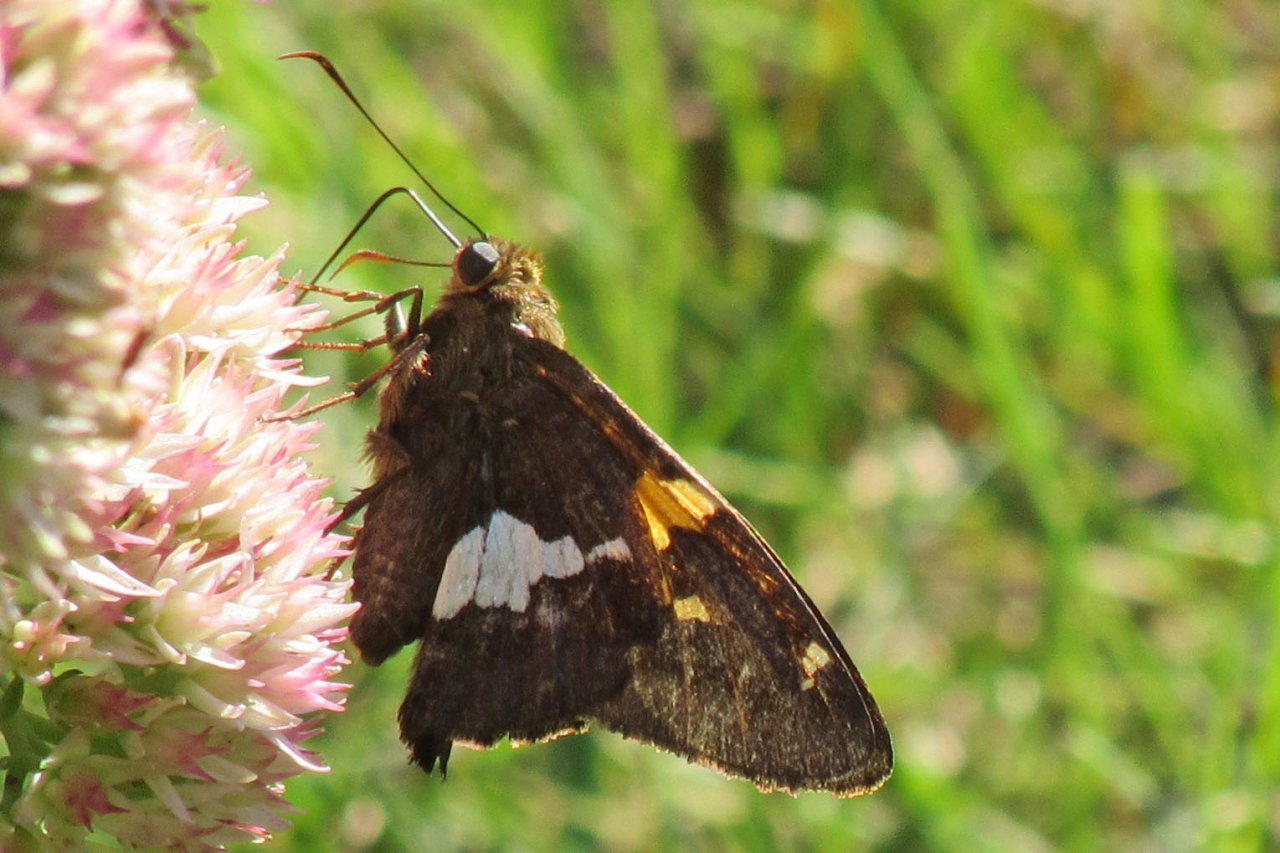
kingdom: Animalia
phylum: Arthropoda
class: Insecta
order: Lepidoptera
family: Hesperiidae
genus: Epargyreus
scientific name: Epargyreus clarus
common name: Silver-spotted Skipper
